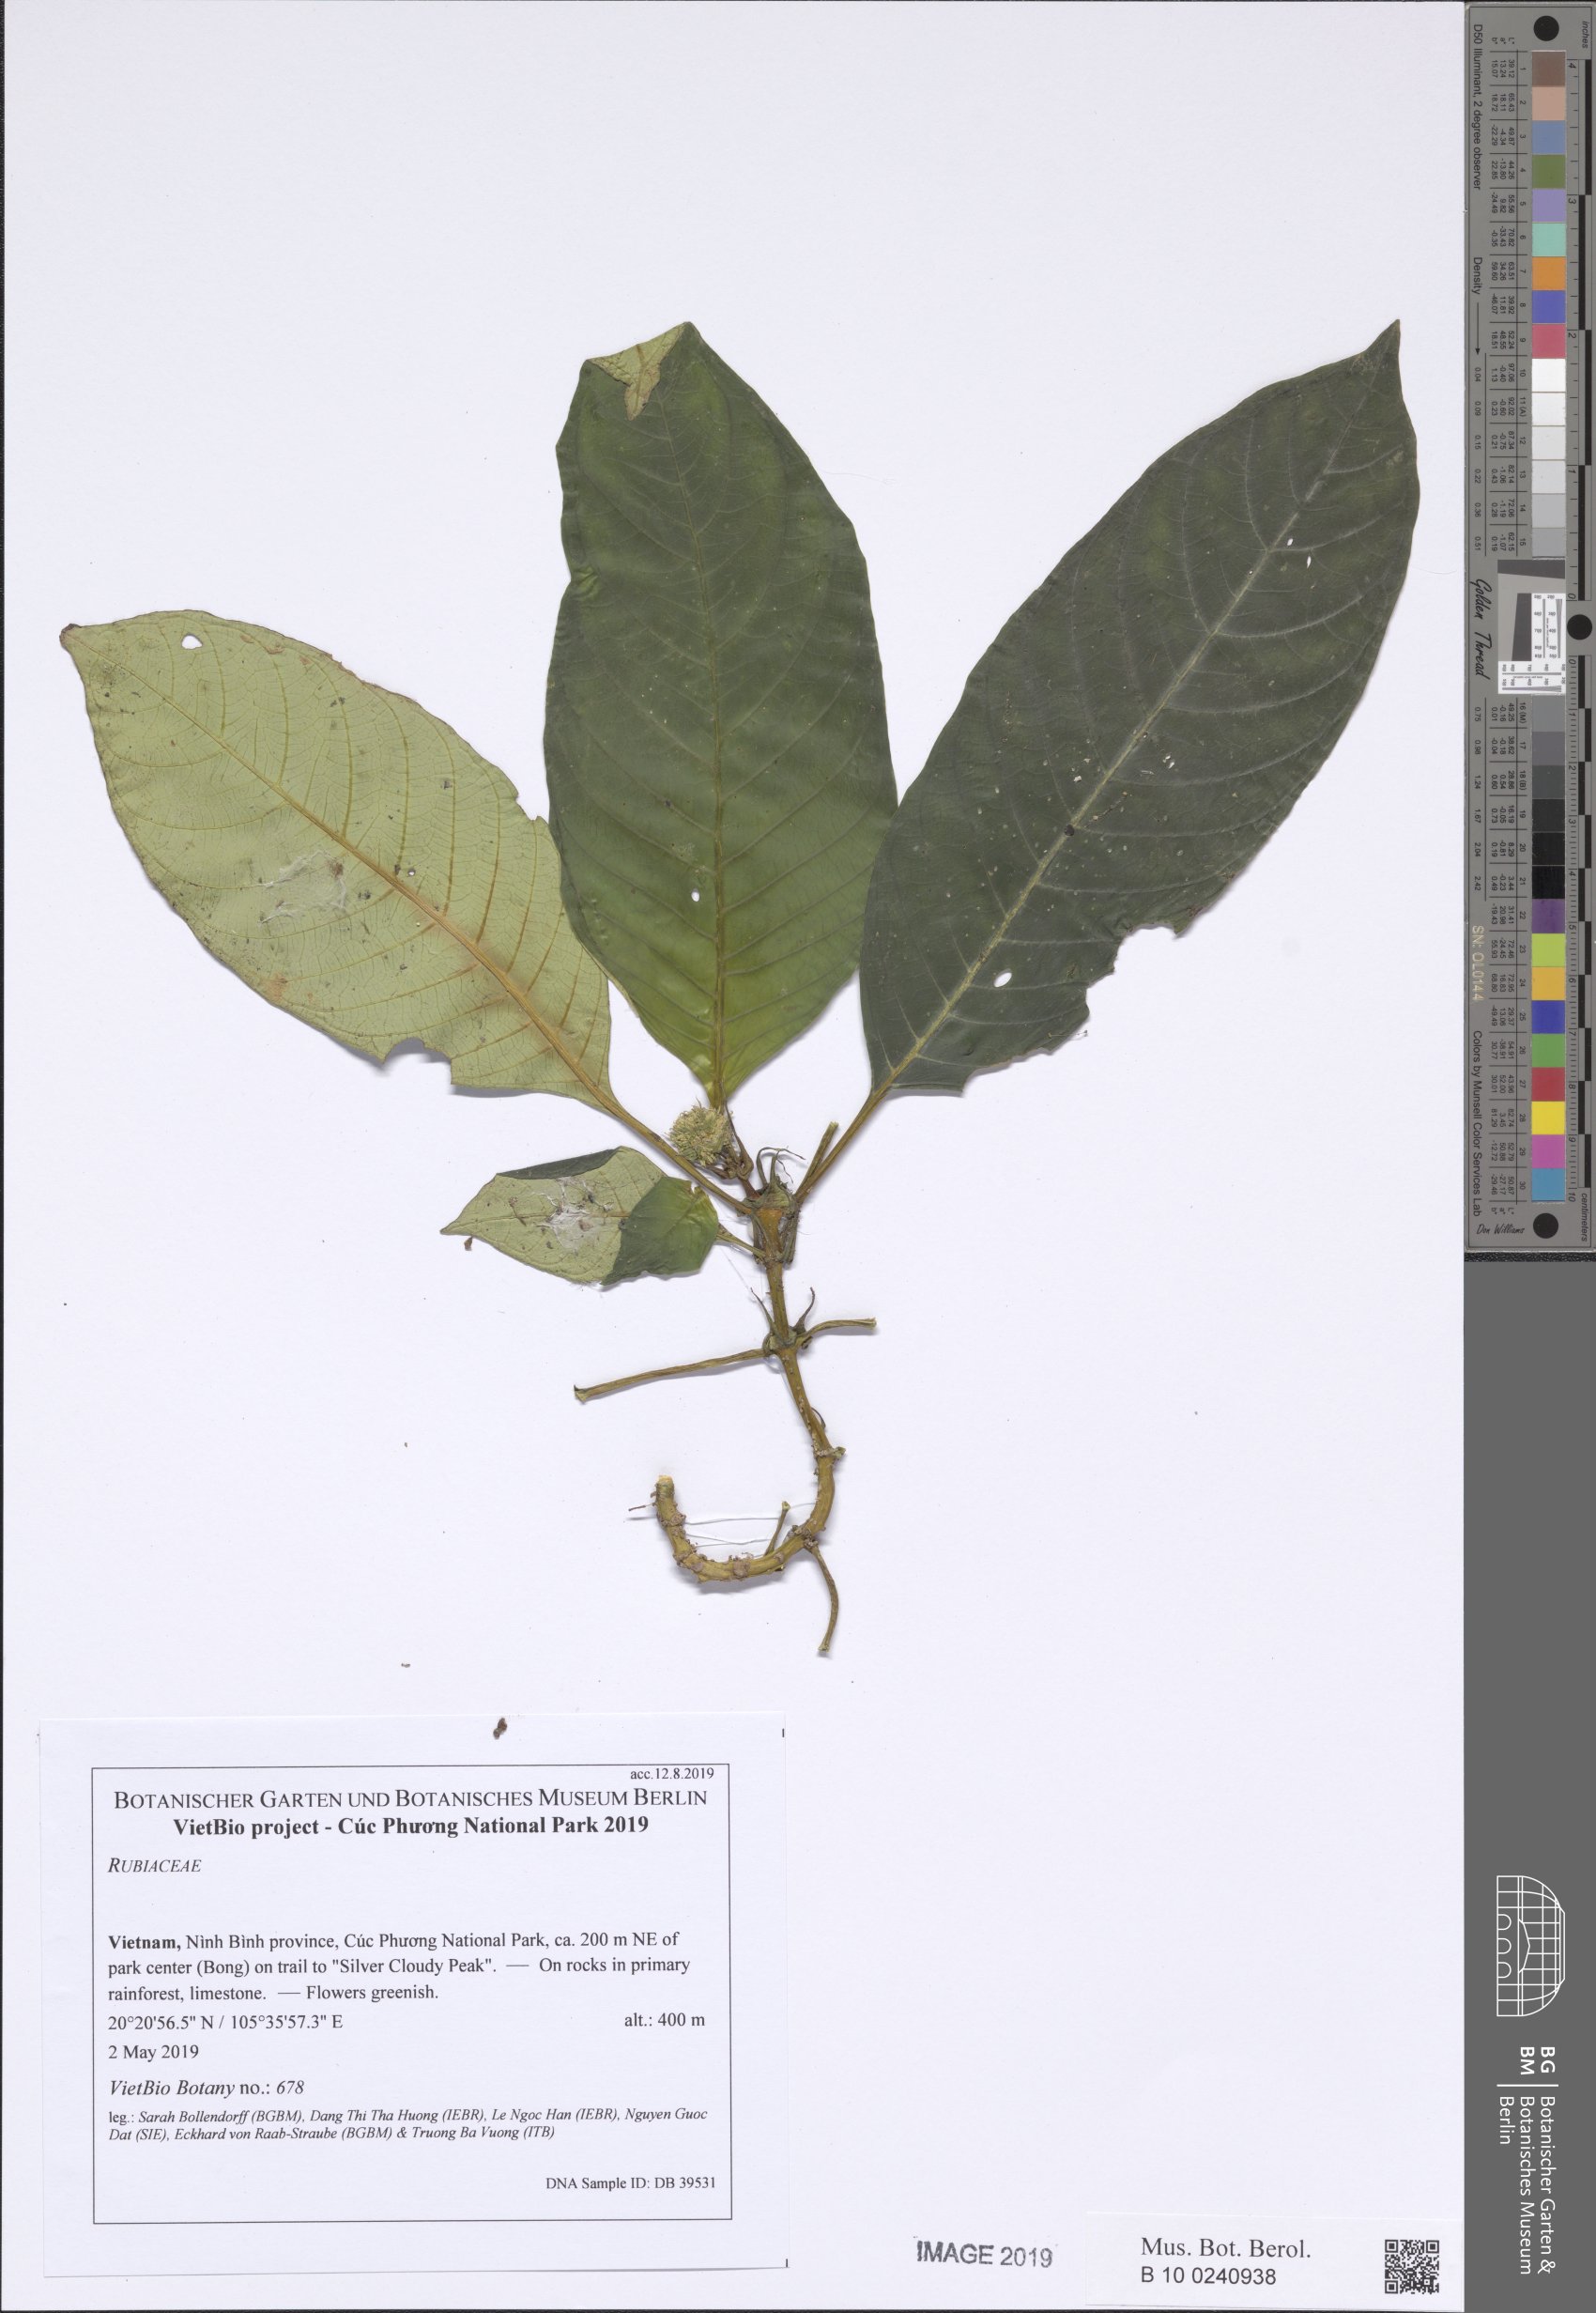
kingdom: Plantae
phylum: Tracheophyta
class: Magnoliopsida
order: Gentianales
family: Rubiaceae
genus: Ophiorrhiza
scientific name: Ophiorrhiza ophiorrhizoides
